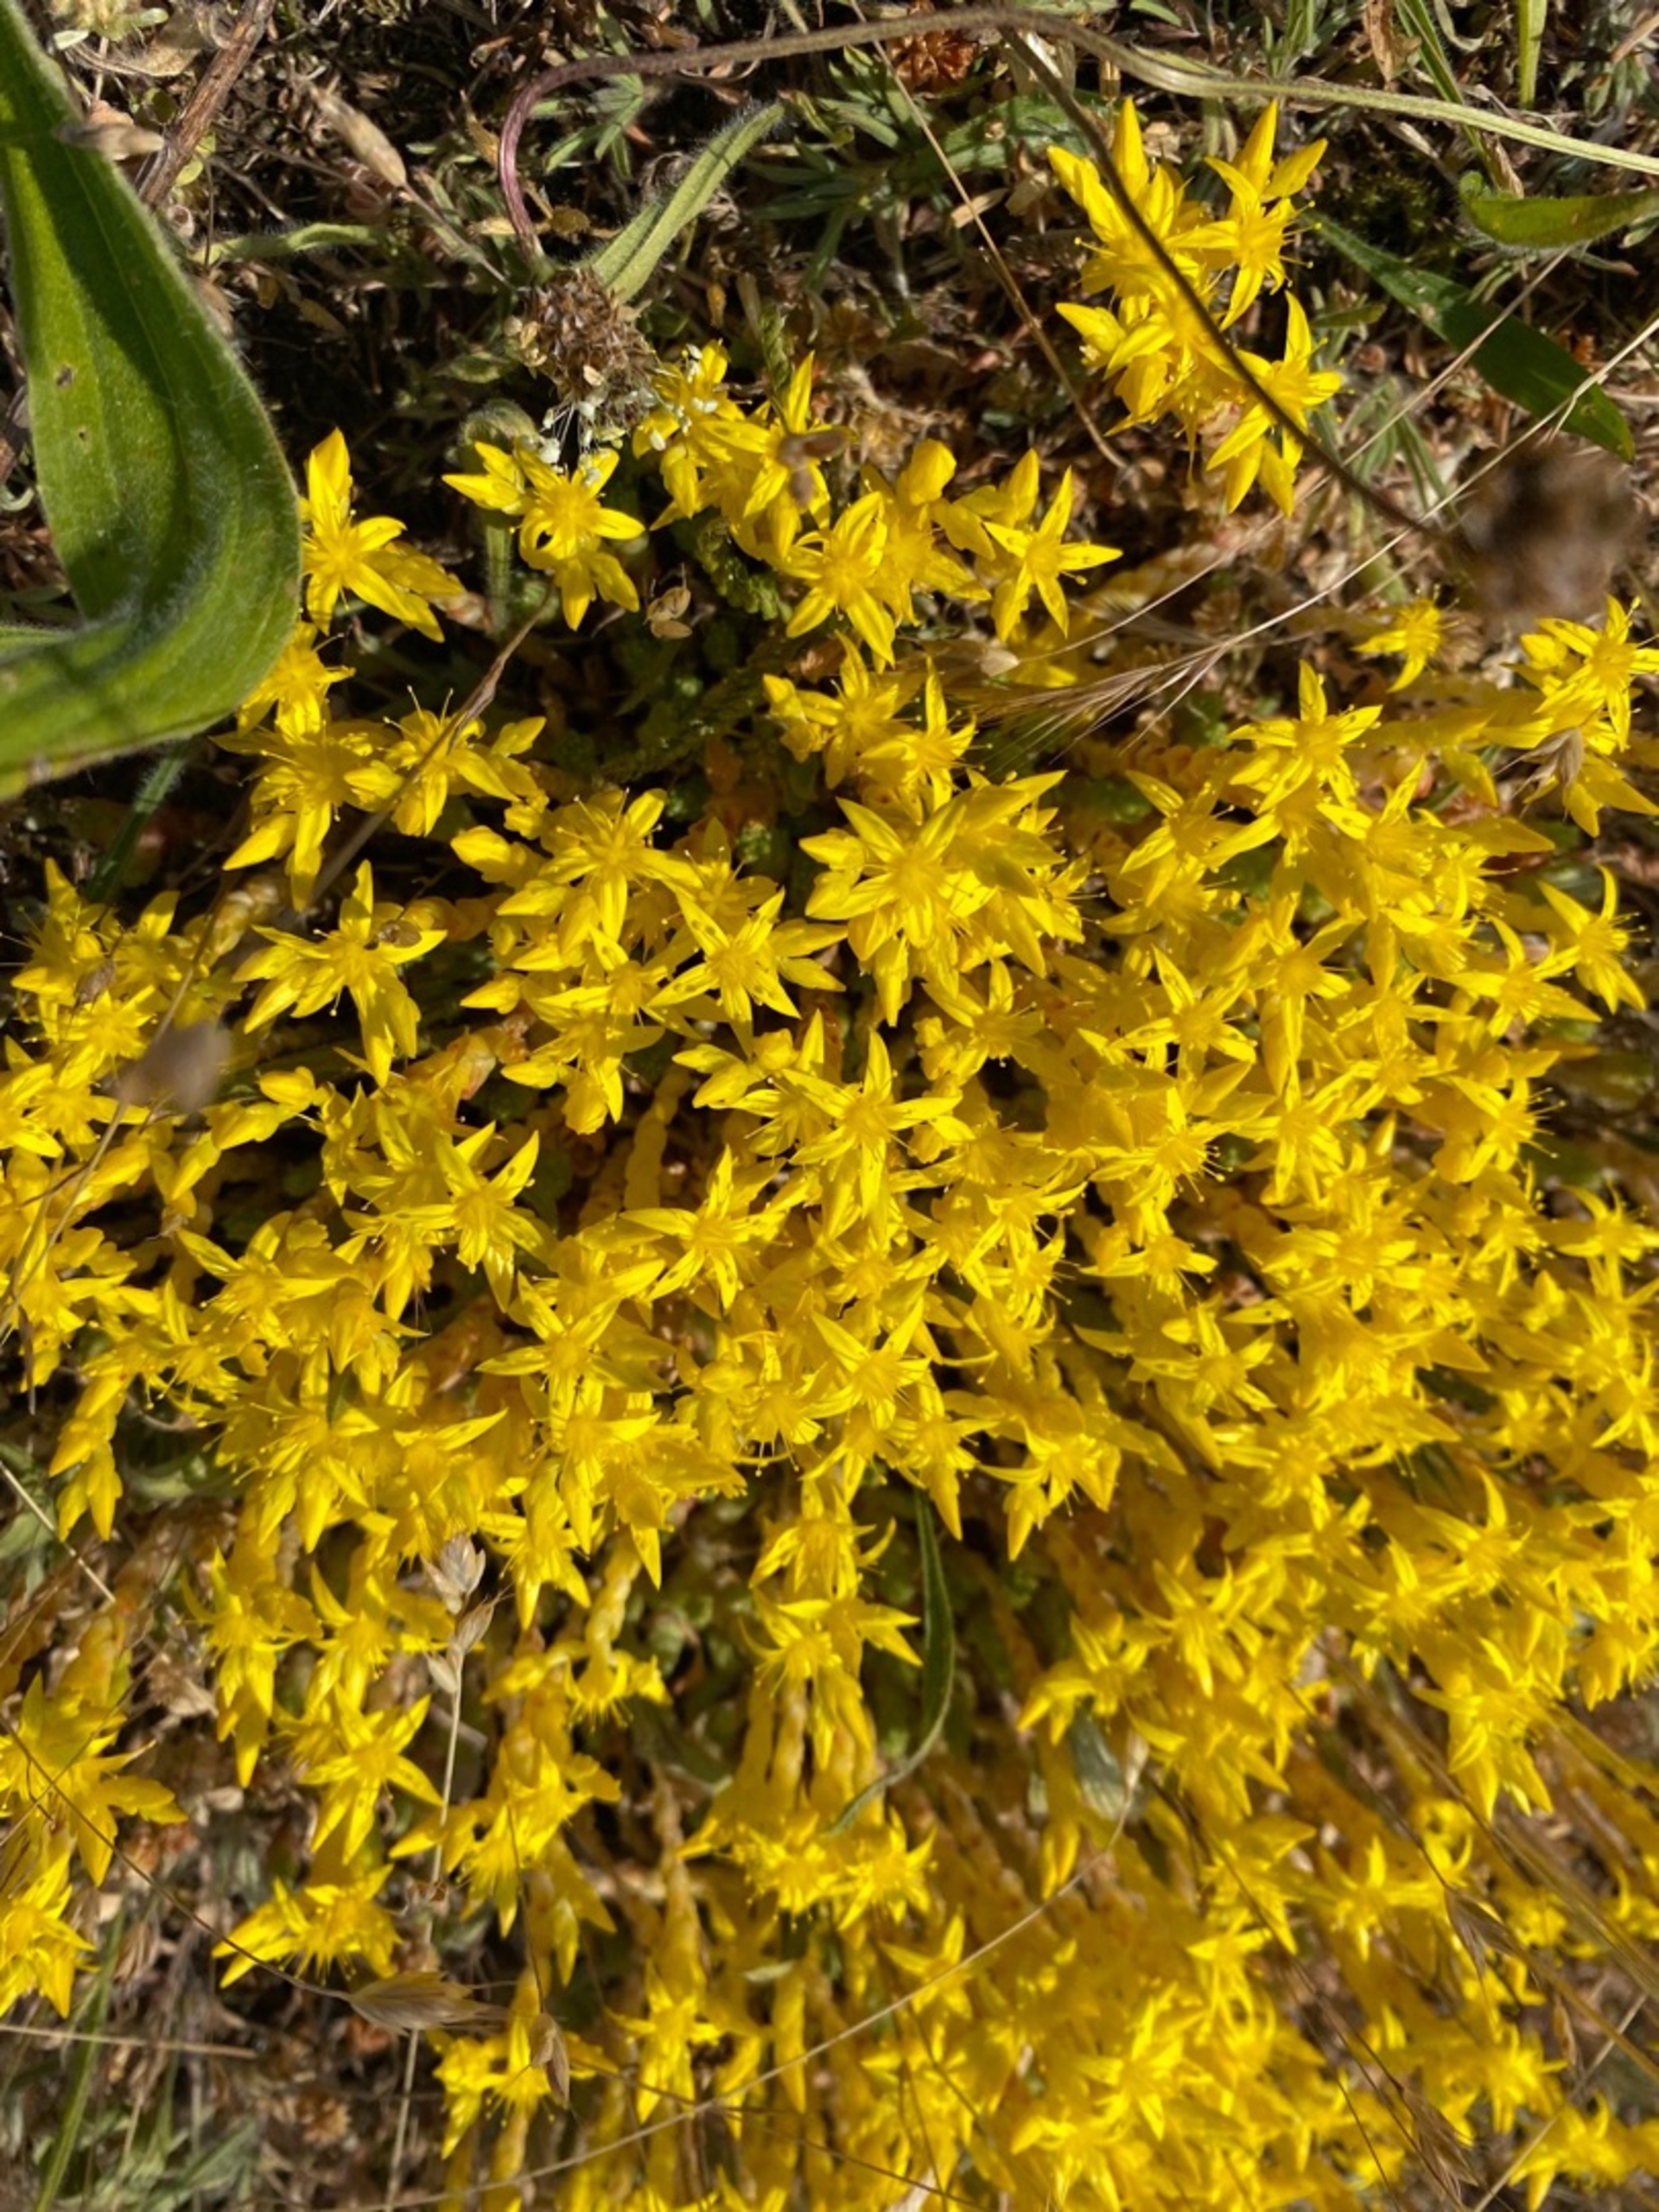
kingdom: Plantae
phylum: Tracheophyta
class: Magnoliopsida
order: Saxifragales
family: Crassulaceae
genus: Sedum
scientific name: Sedum acre
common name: Bidende stenurt
